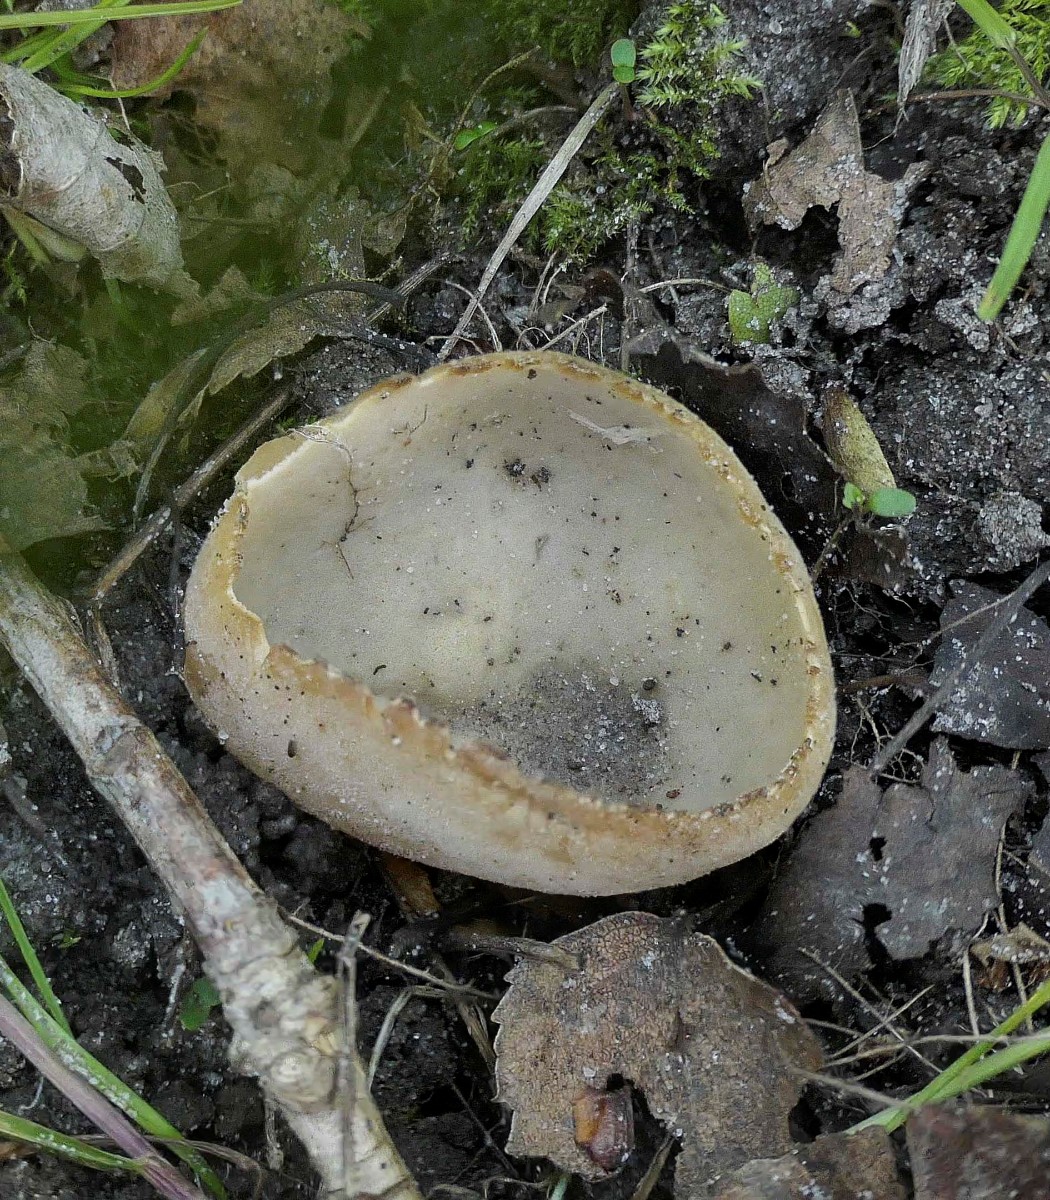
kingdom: Fungi
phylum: Ascomycota
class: Pezizomycetes
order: Pezizales
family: Pyronemataceae
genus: Tarzetta
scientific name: Tarzetta cupularis
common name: gulbrun pokalbæger
